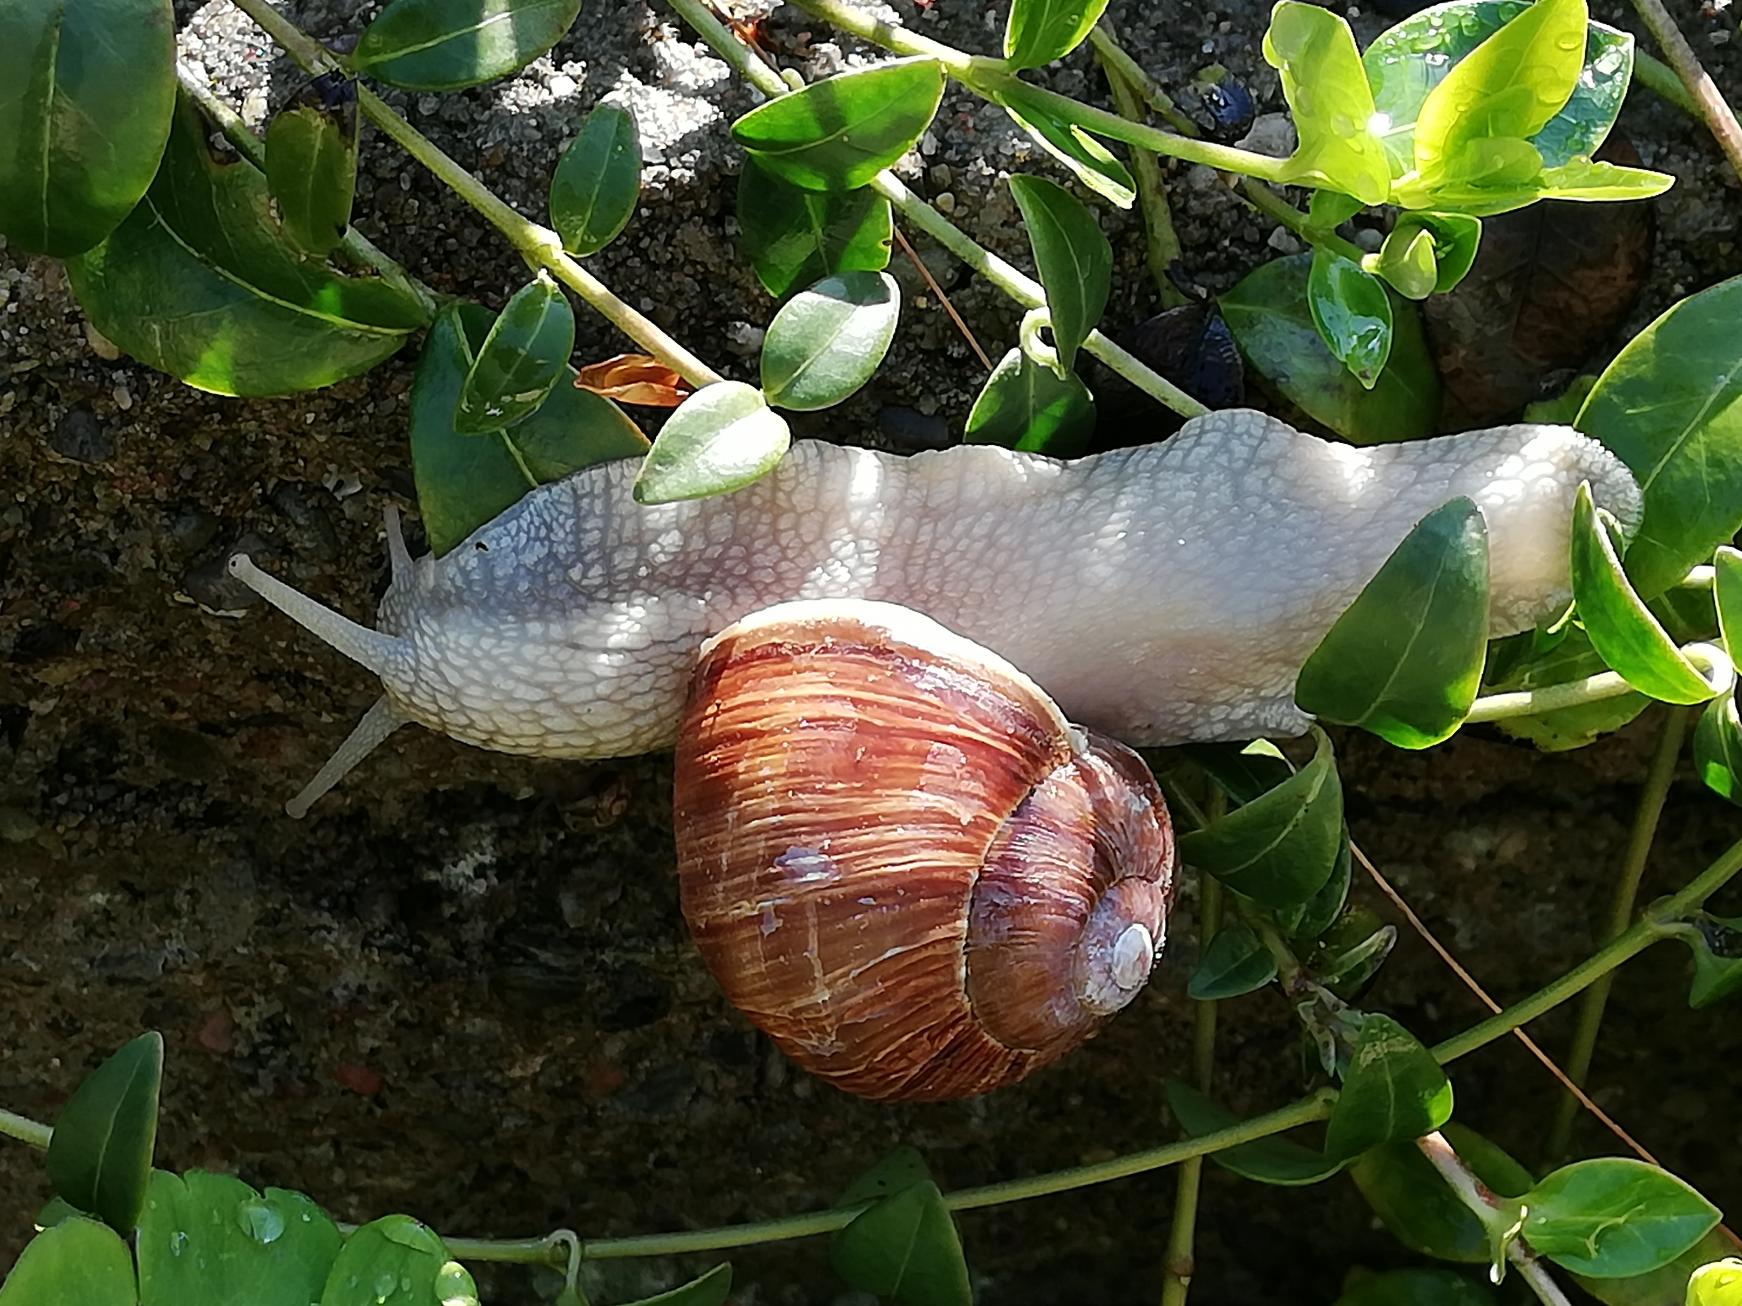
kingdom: Animalia
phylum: Mollusca
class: Gastropoda
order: Stylommatophora
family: Helicidae
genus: Helix
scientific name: Helix pomatia
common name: Vinbjergsnegl
